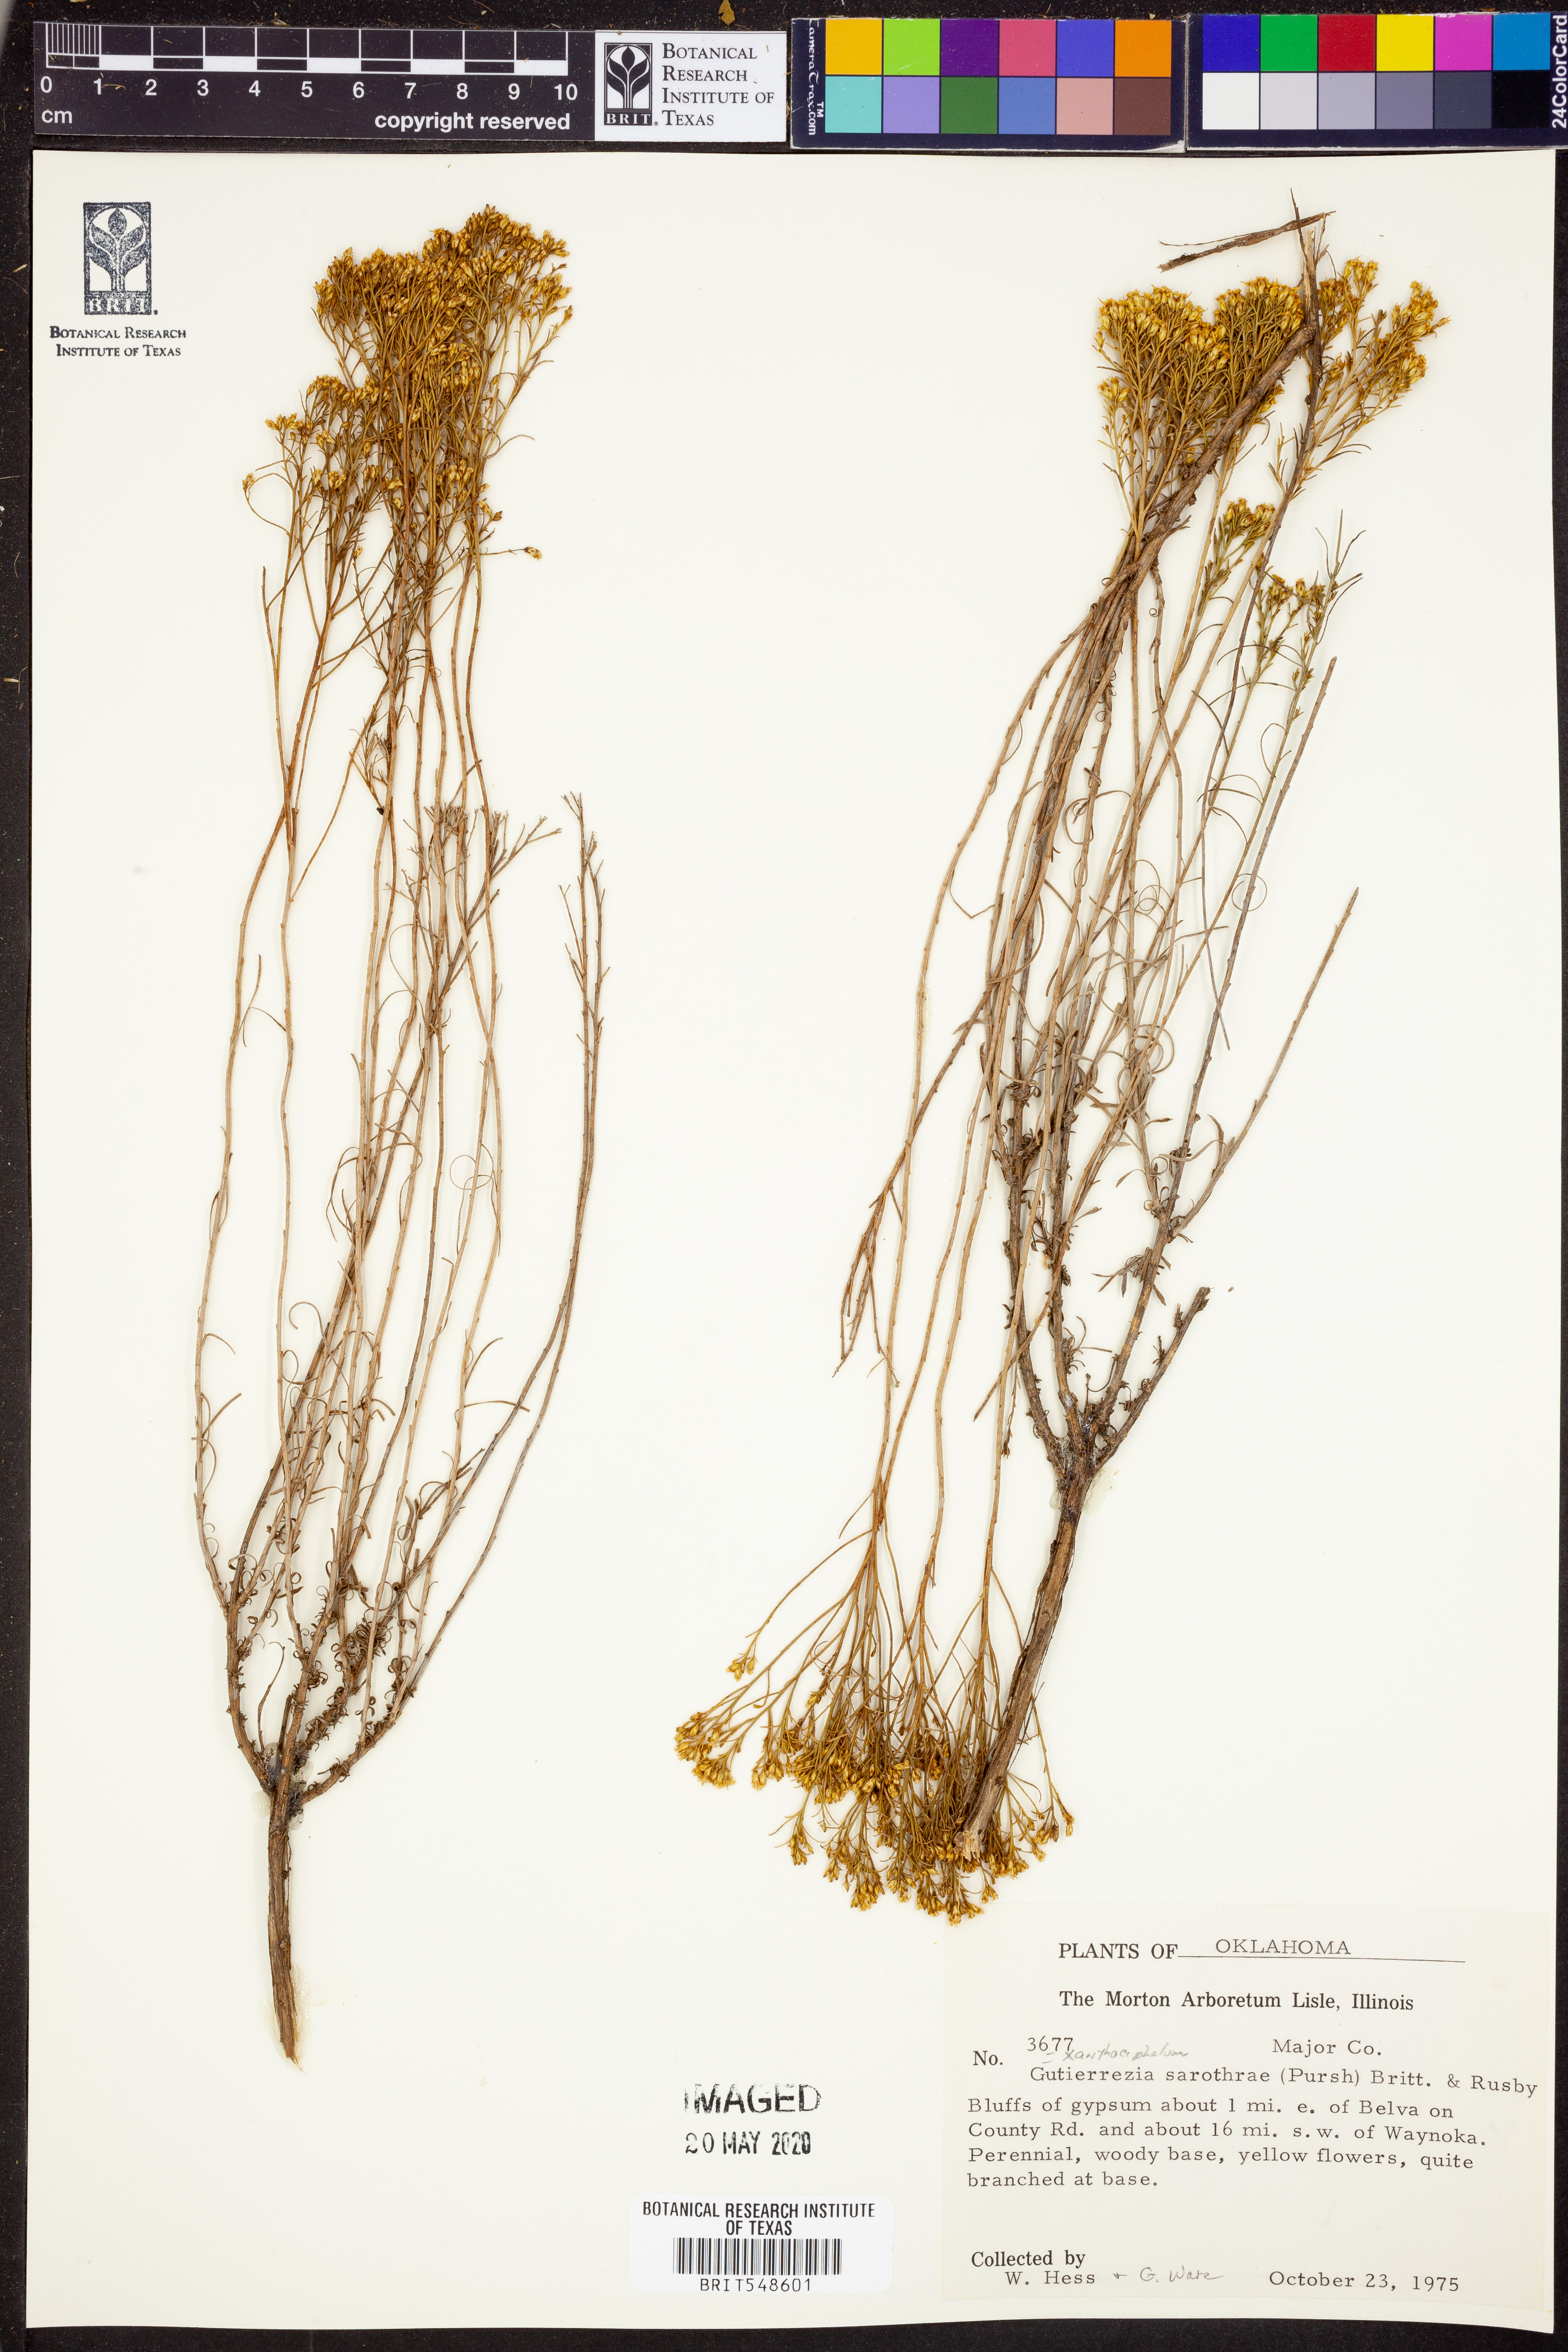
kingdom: Plantae
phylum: Tracheophyta
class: Magnoliopsida
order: Asterales
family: Asteraceae
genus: Gutierrezia
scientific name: Gutierrezia sarothrae
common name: Broom snakeweed
